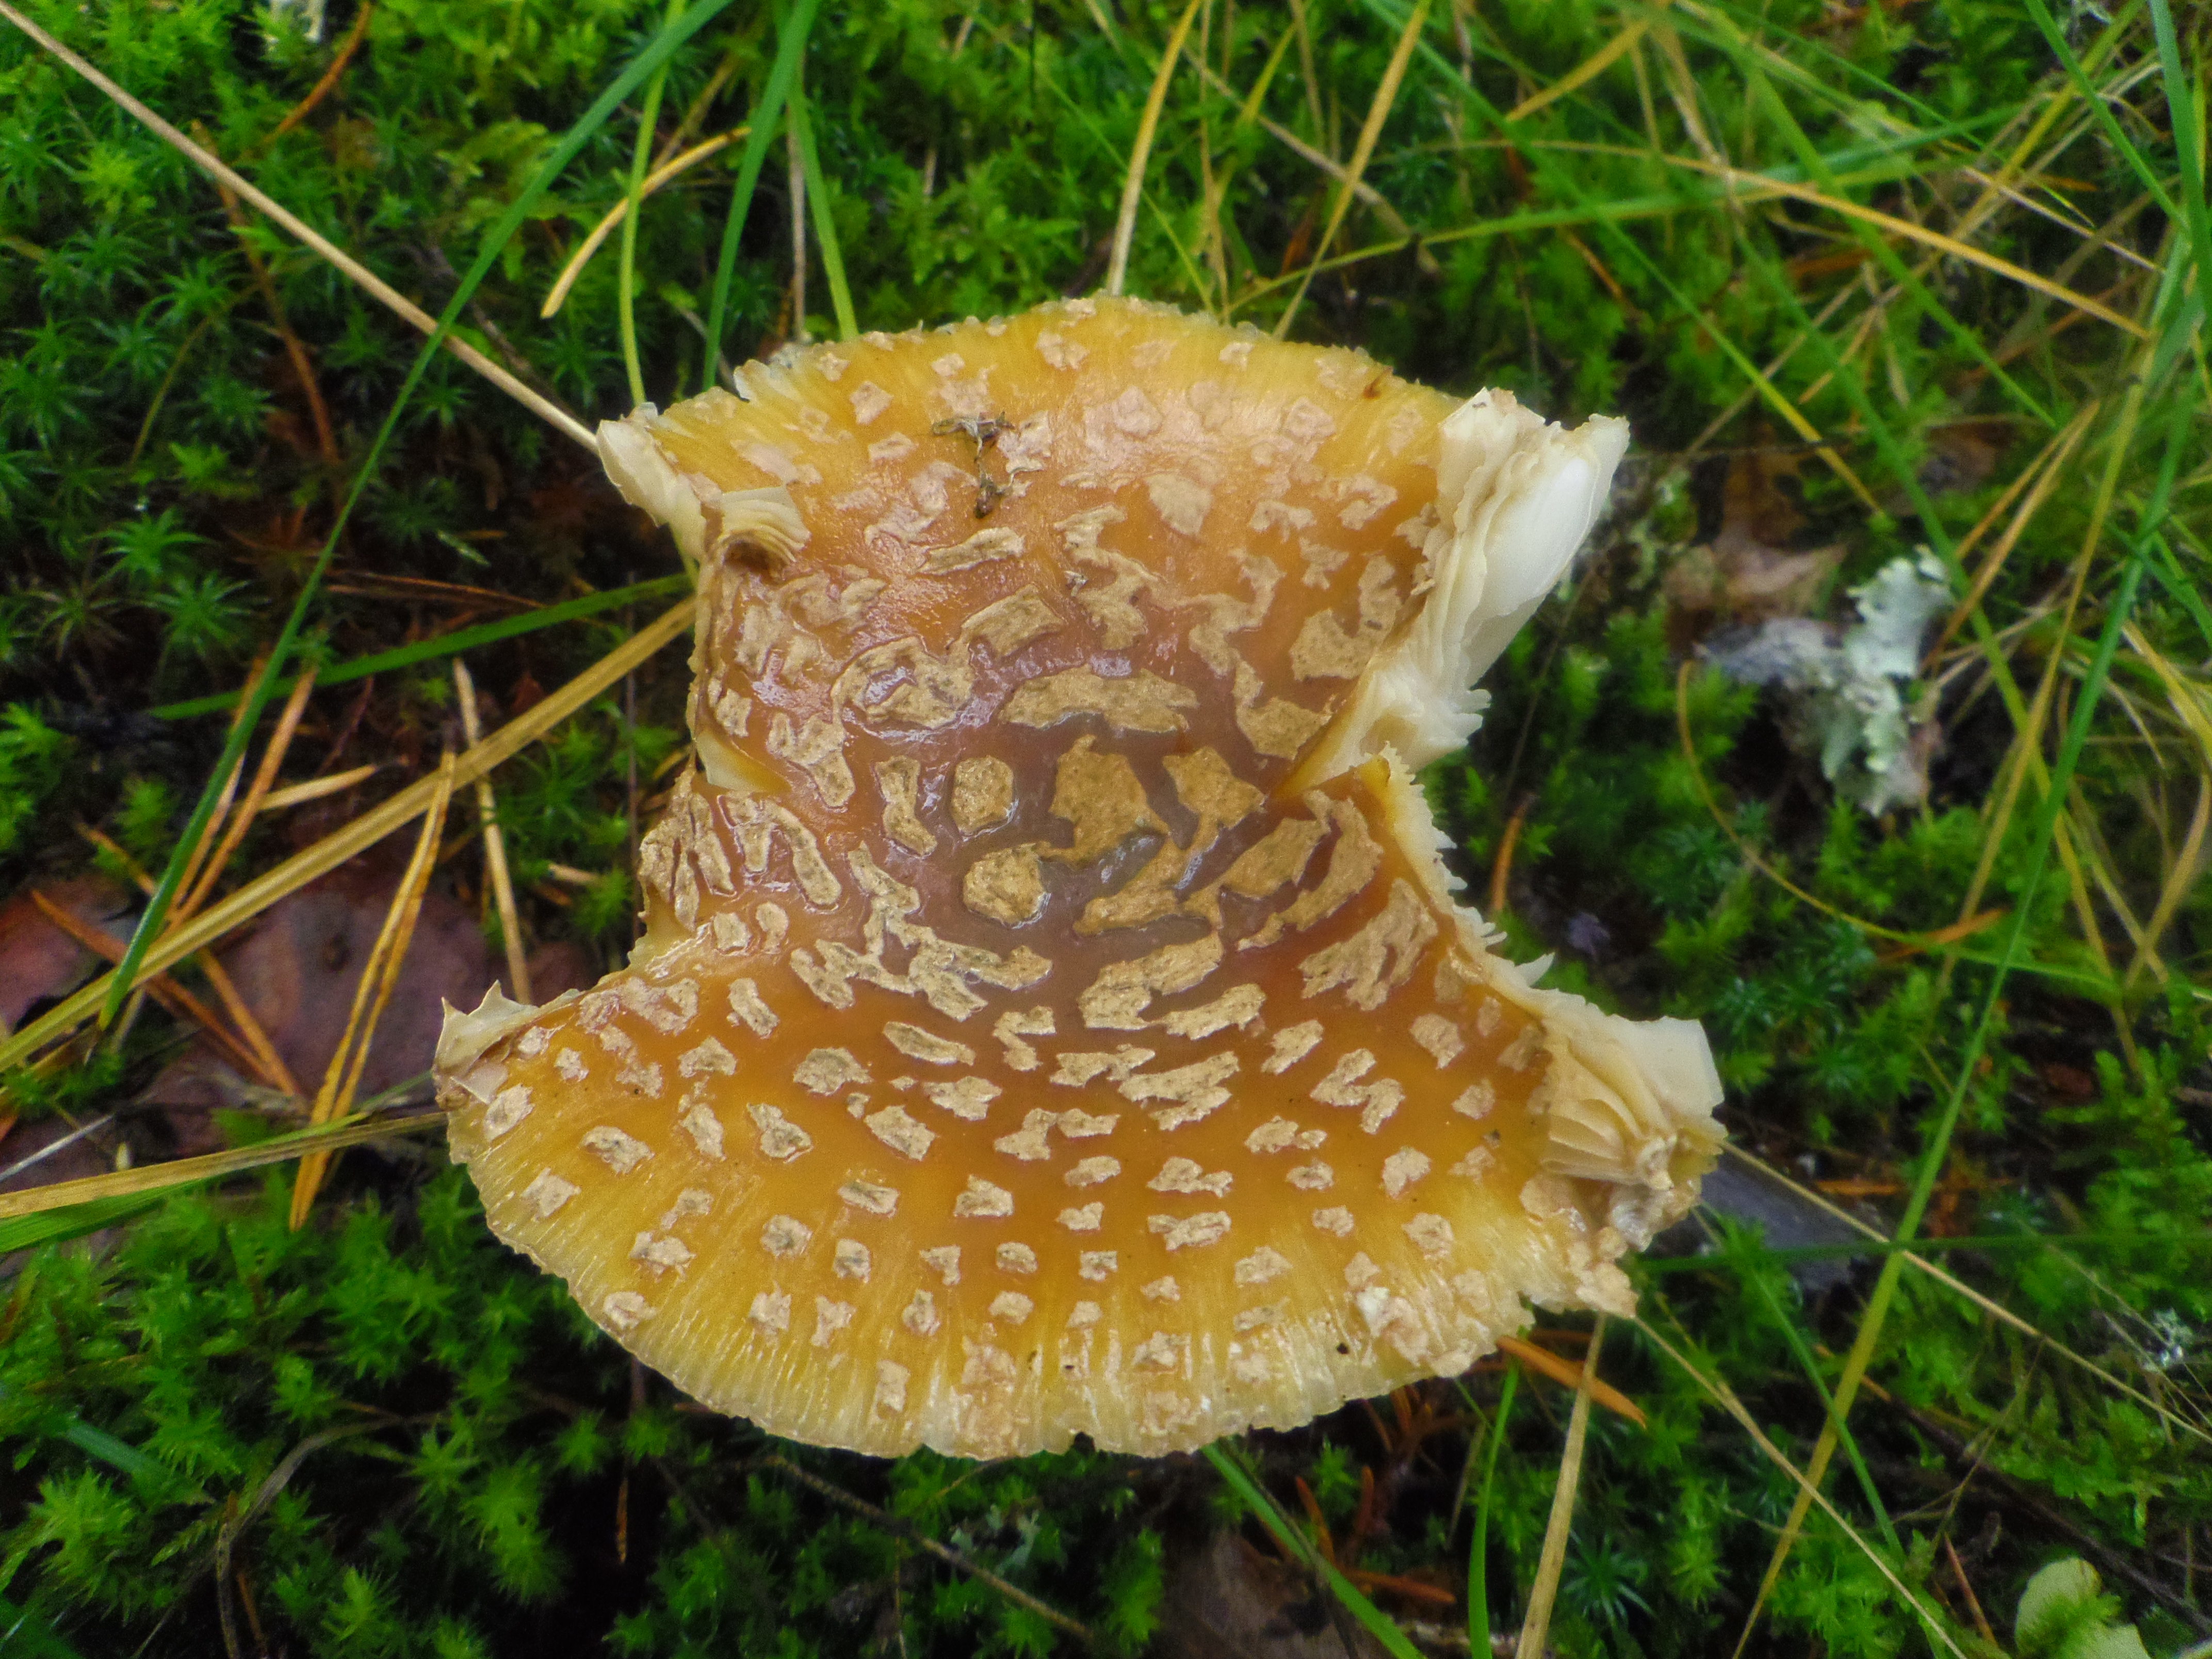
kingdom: Fungi
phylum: Basidiomycota
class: Agaricomycetes
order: Agaricales
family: Amanitaceae
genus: Amanita
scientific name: Amanita regalis
